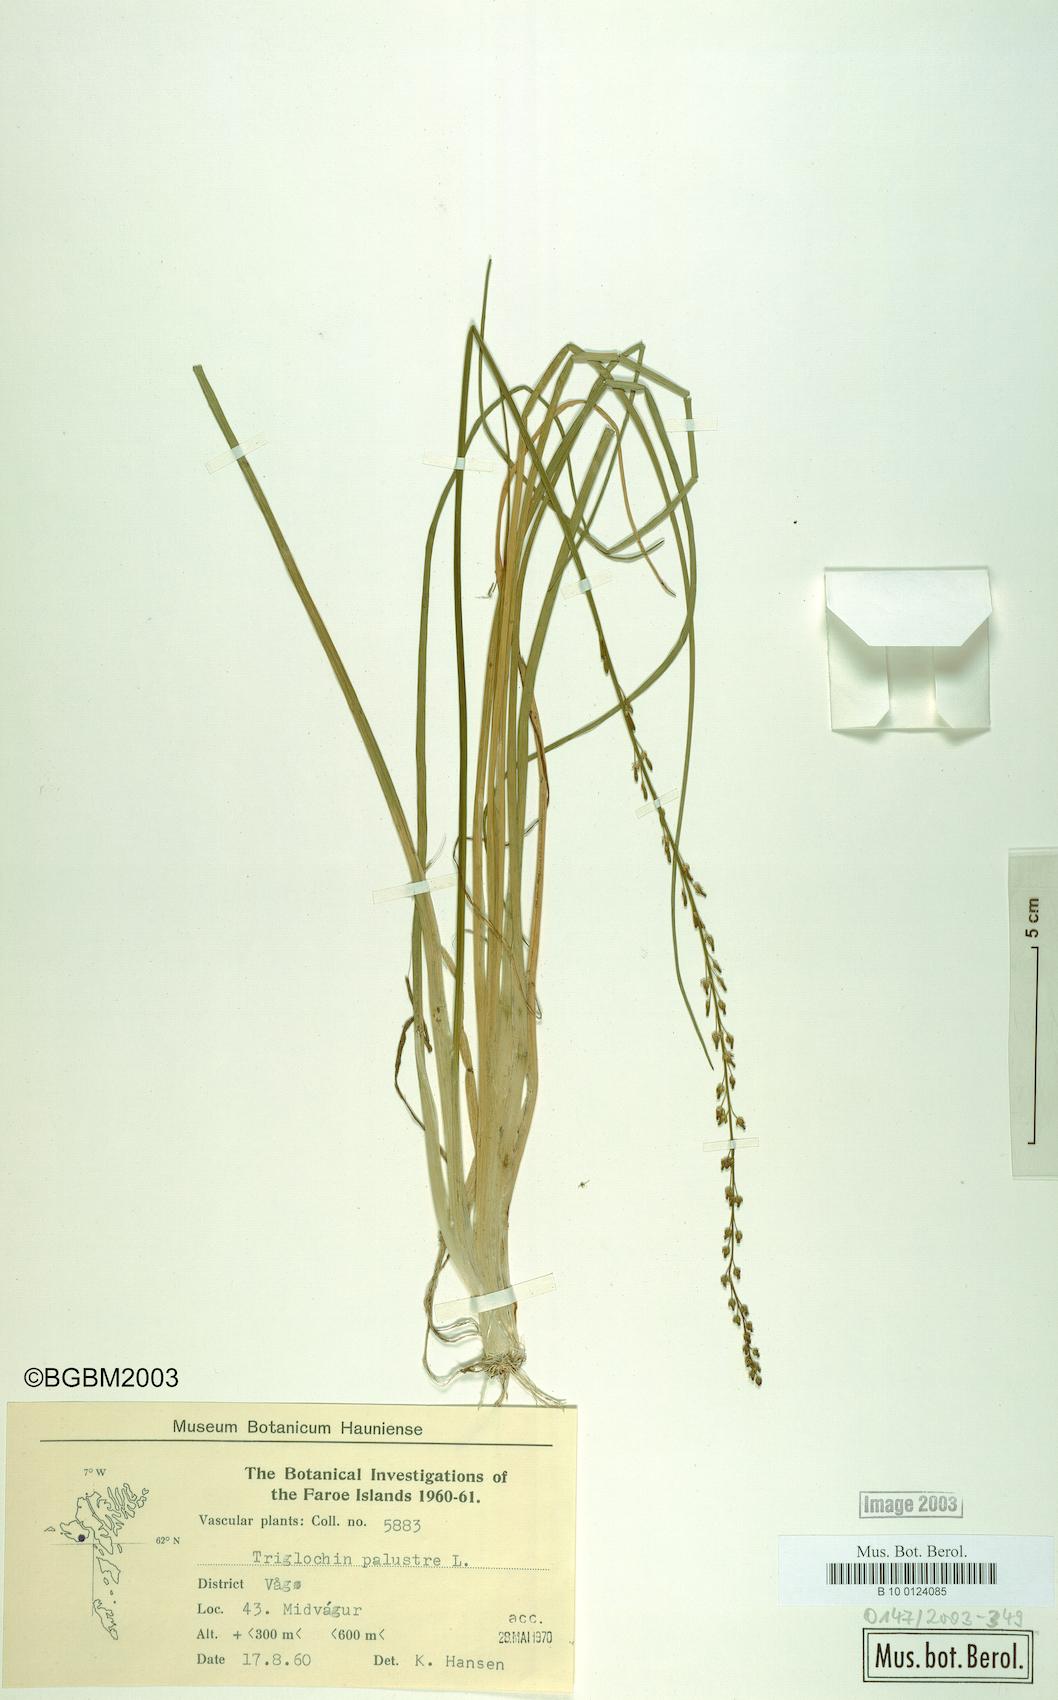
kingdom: Plantae
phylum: Tracheophyta
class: Liliopsida
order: Alismatales
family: Juncaginaceae
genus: Triglochin
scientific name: Triglochin palustris
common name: Marsh arrowgrass
